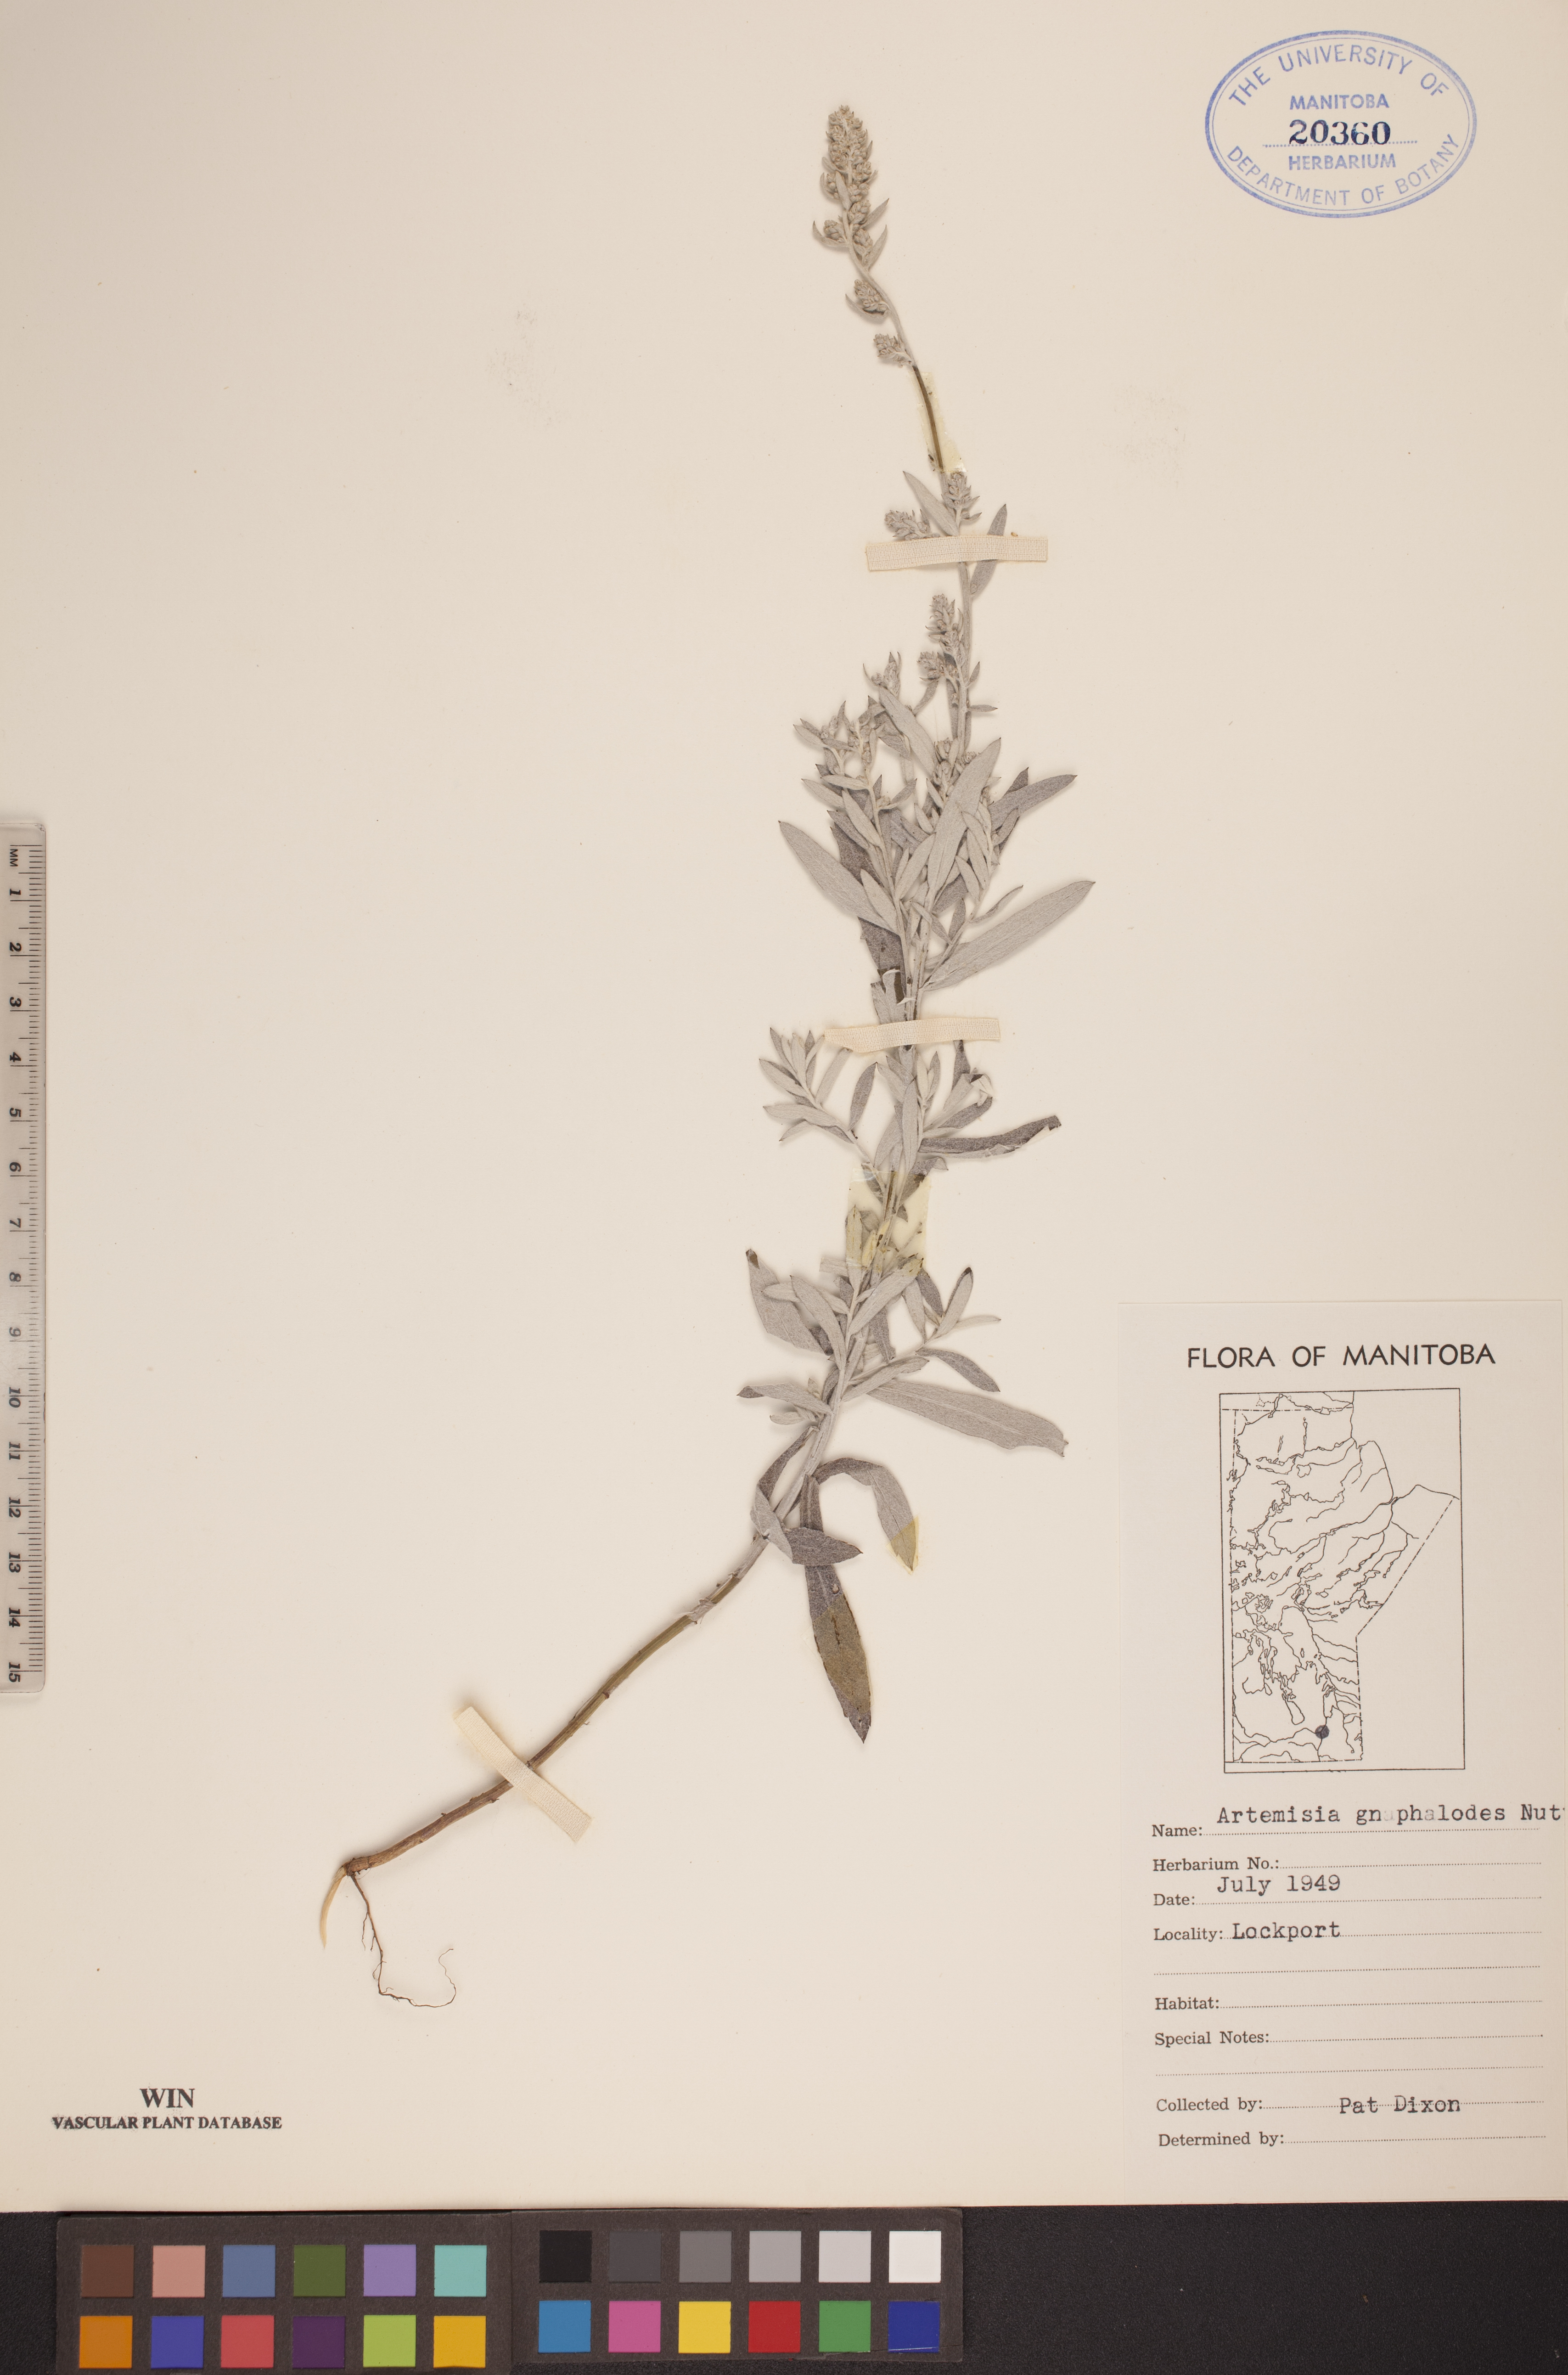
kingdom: Plantae
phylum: Tracheophyta
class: Magnoliopsida
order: Asterales
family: Asteraceae
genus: Artemisia
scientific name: Artemisia ludoviciana
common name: Western mugwort
